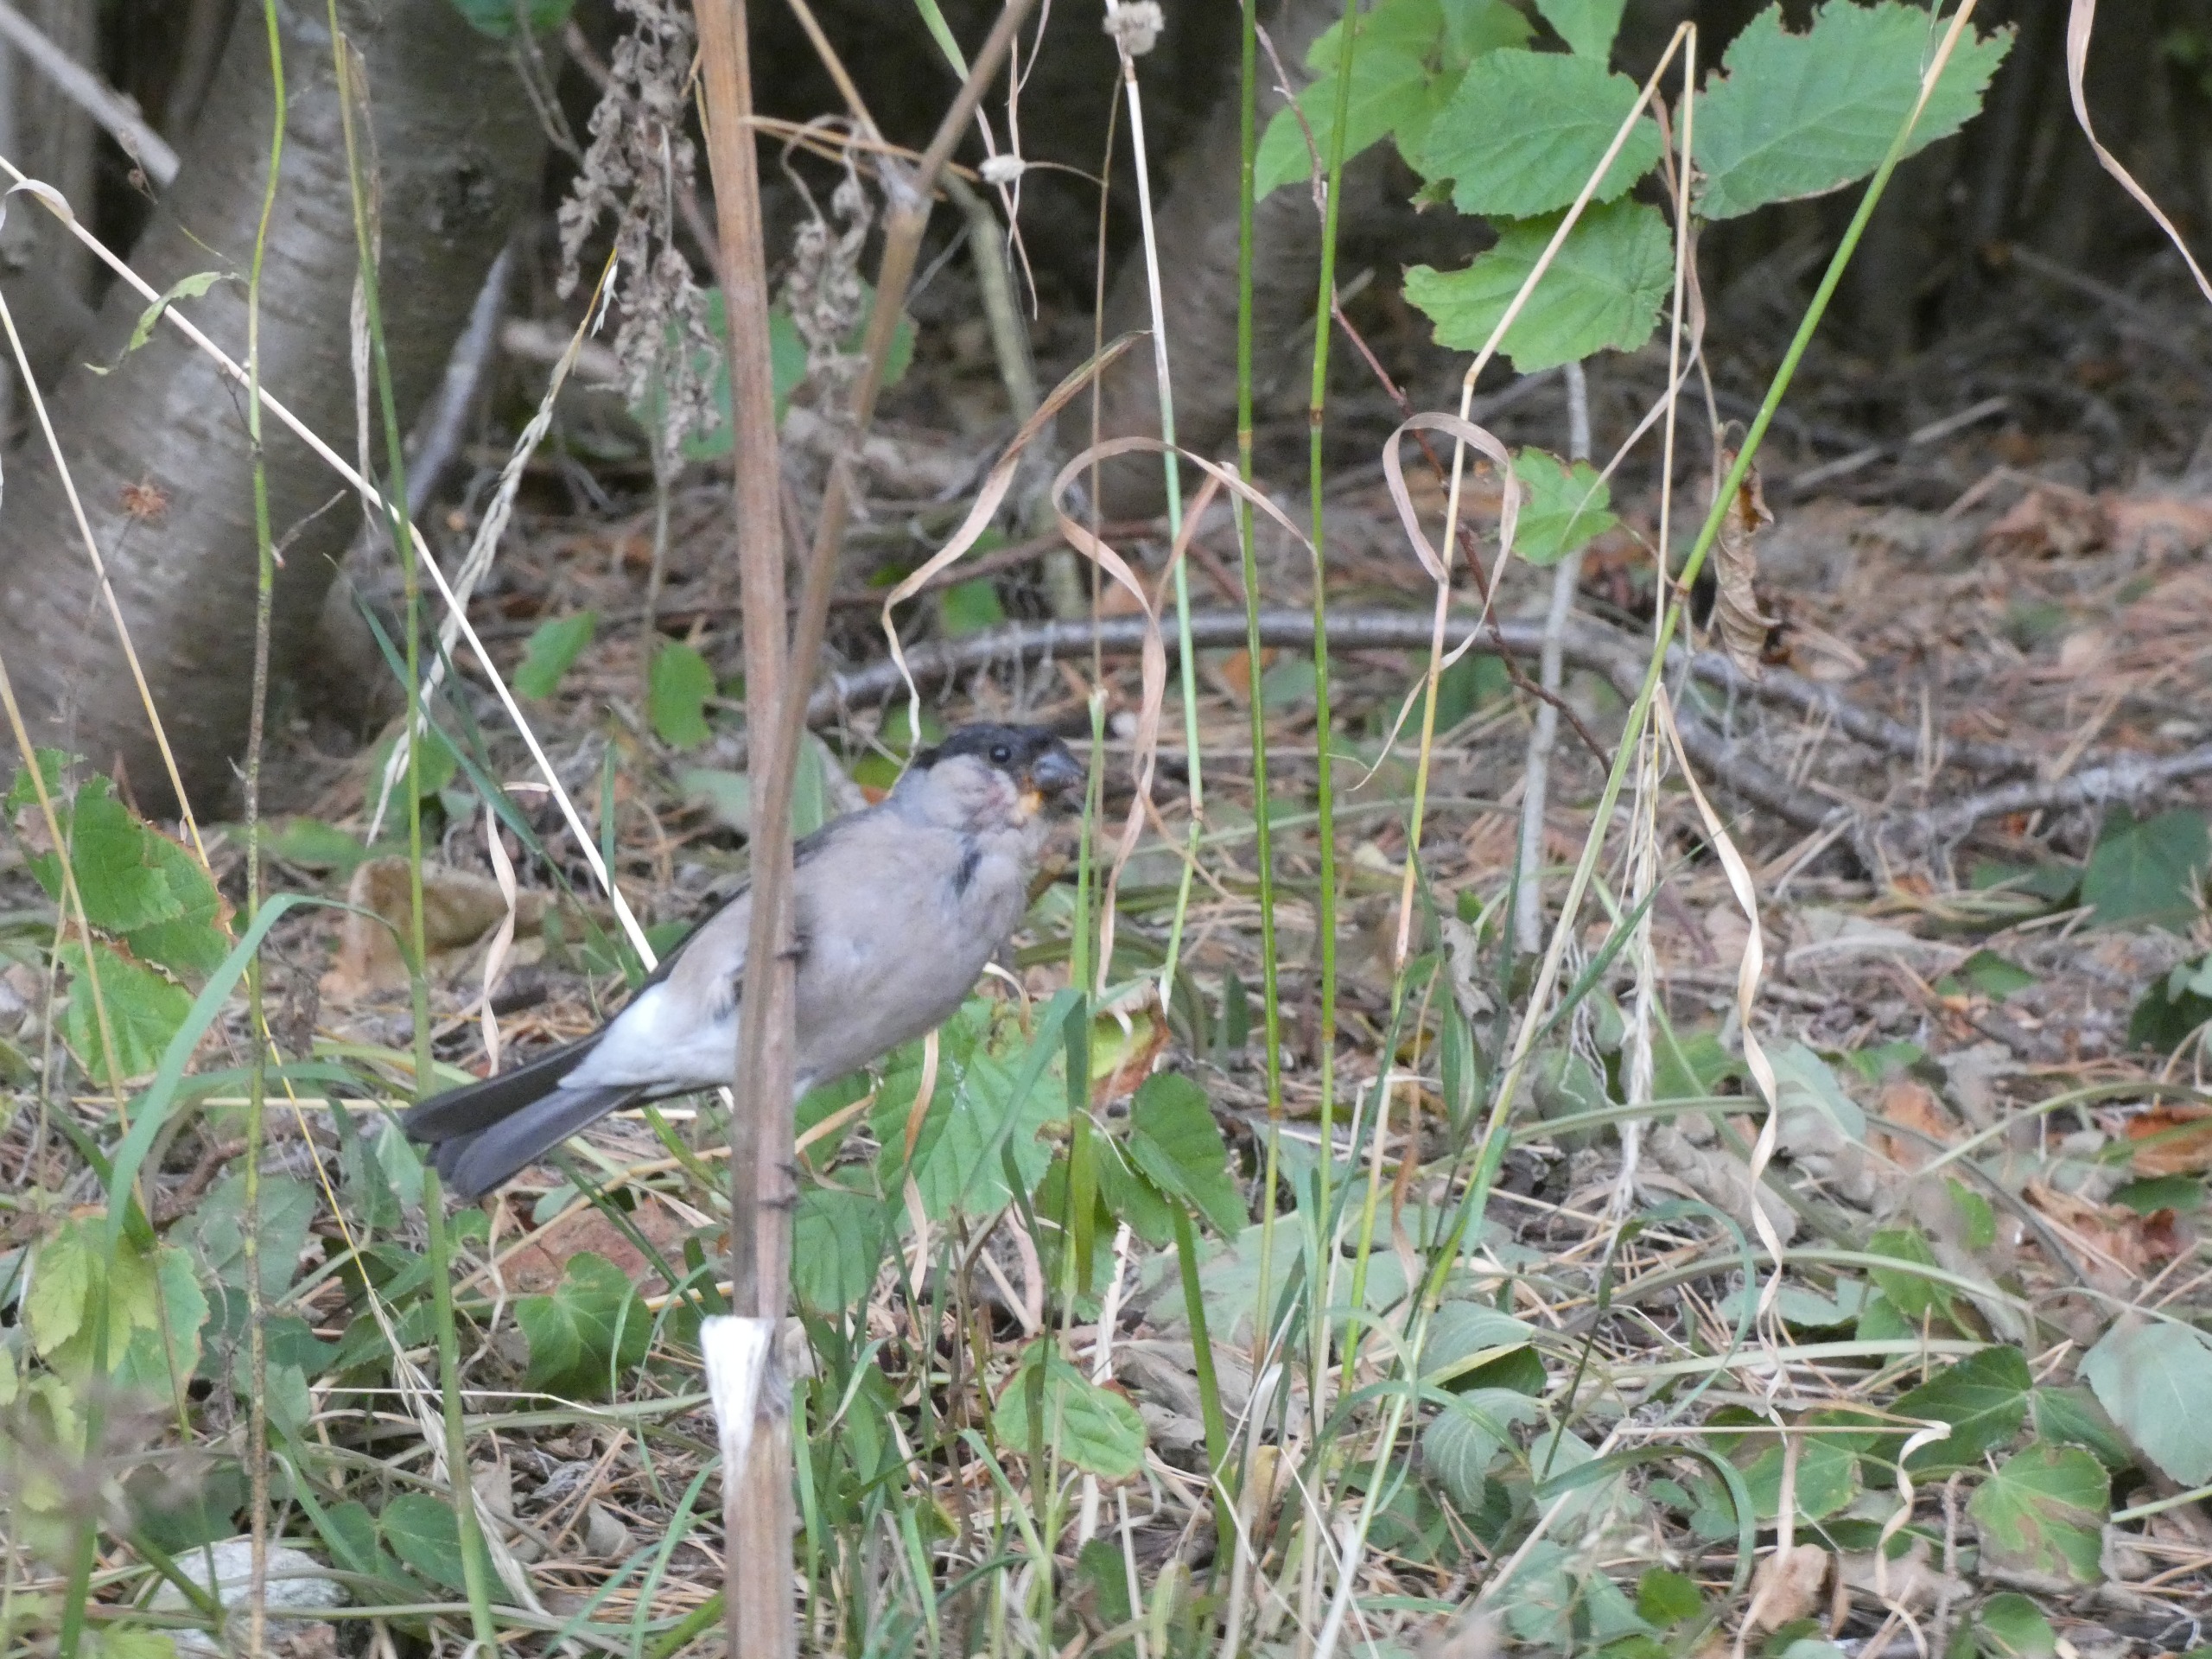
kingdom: Animalia
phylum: Chordata
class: Aves
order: Passeriformes
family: Fringillidae
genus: Pyrrhula
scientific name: Pyrrhula pyrrhula
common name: Dompap
